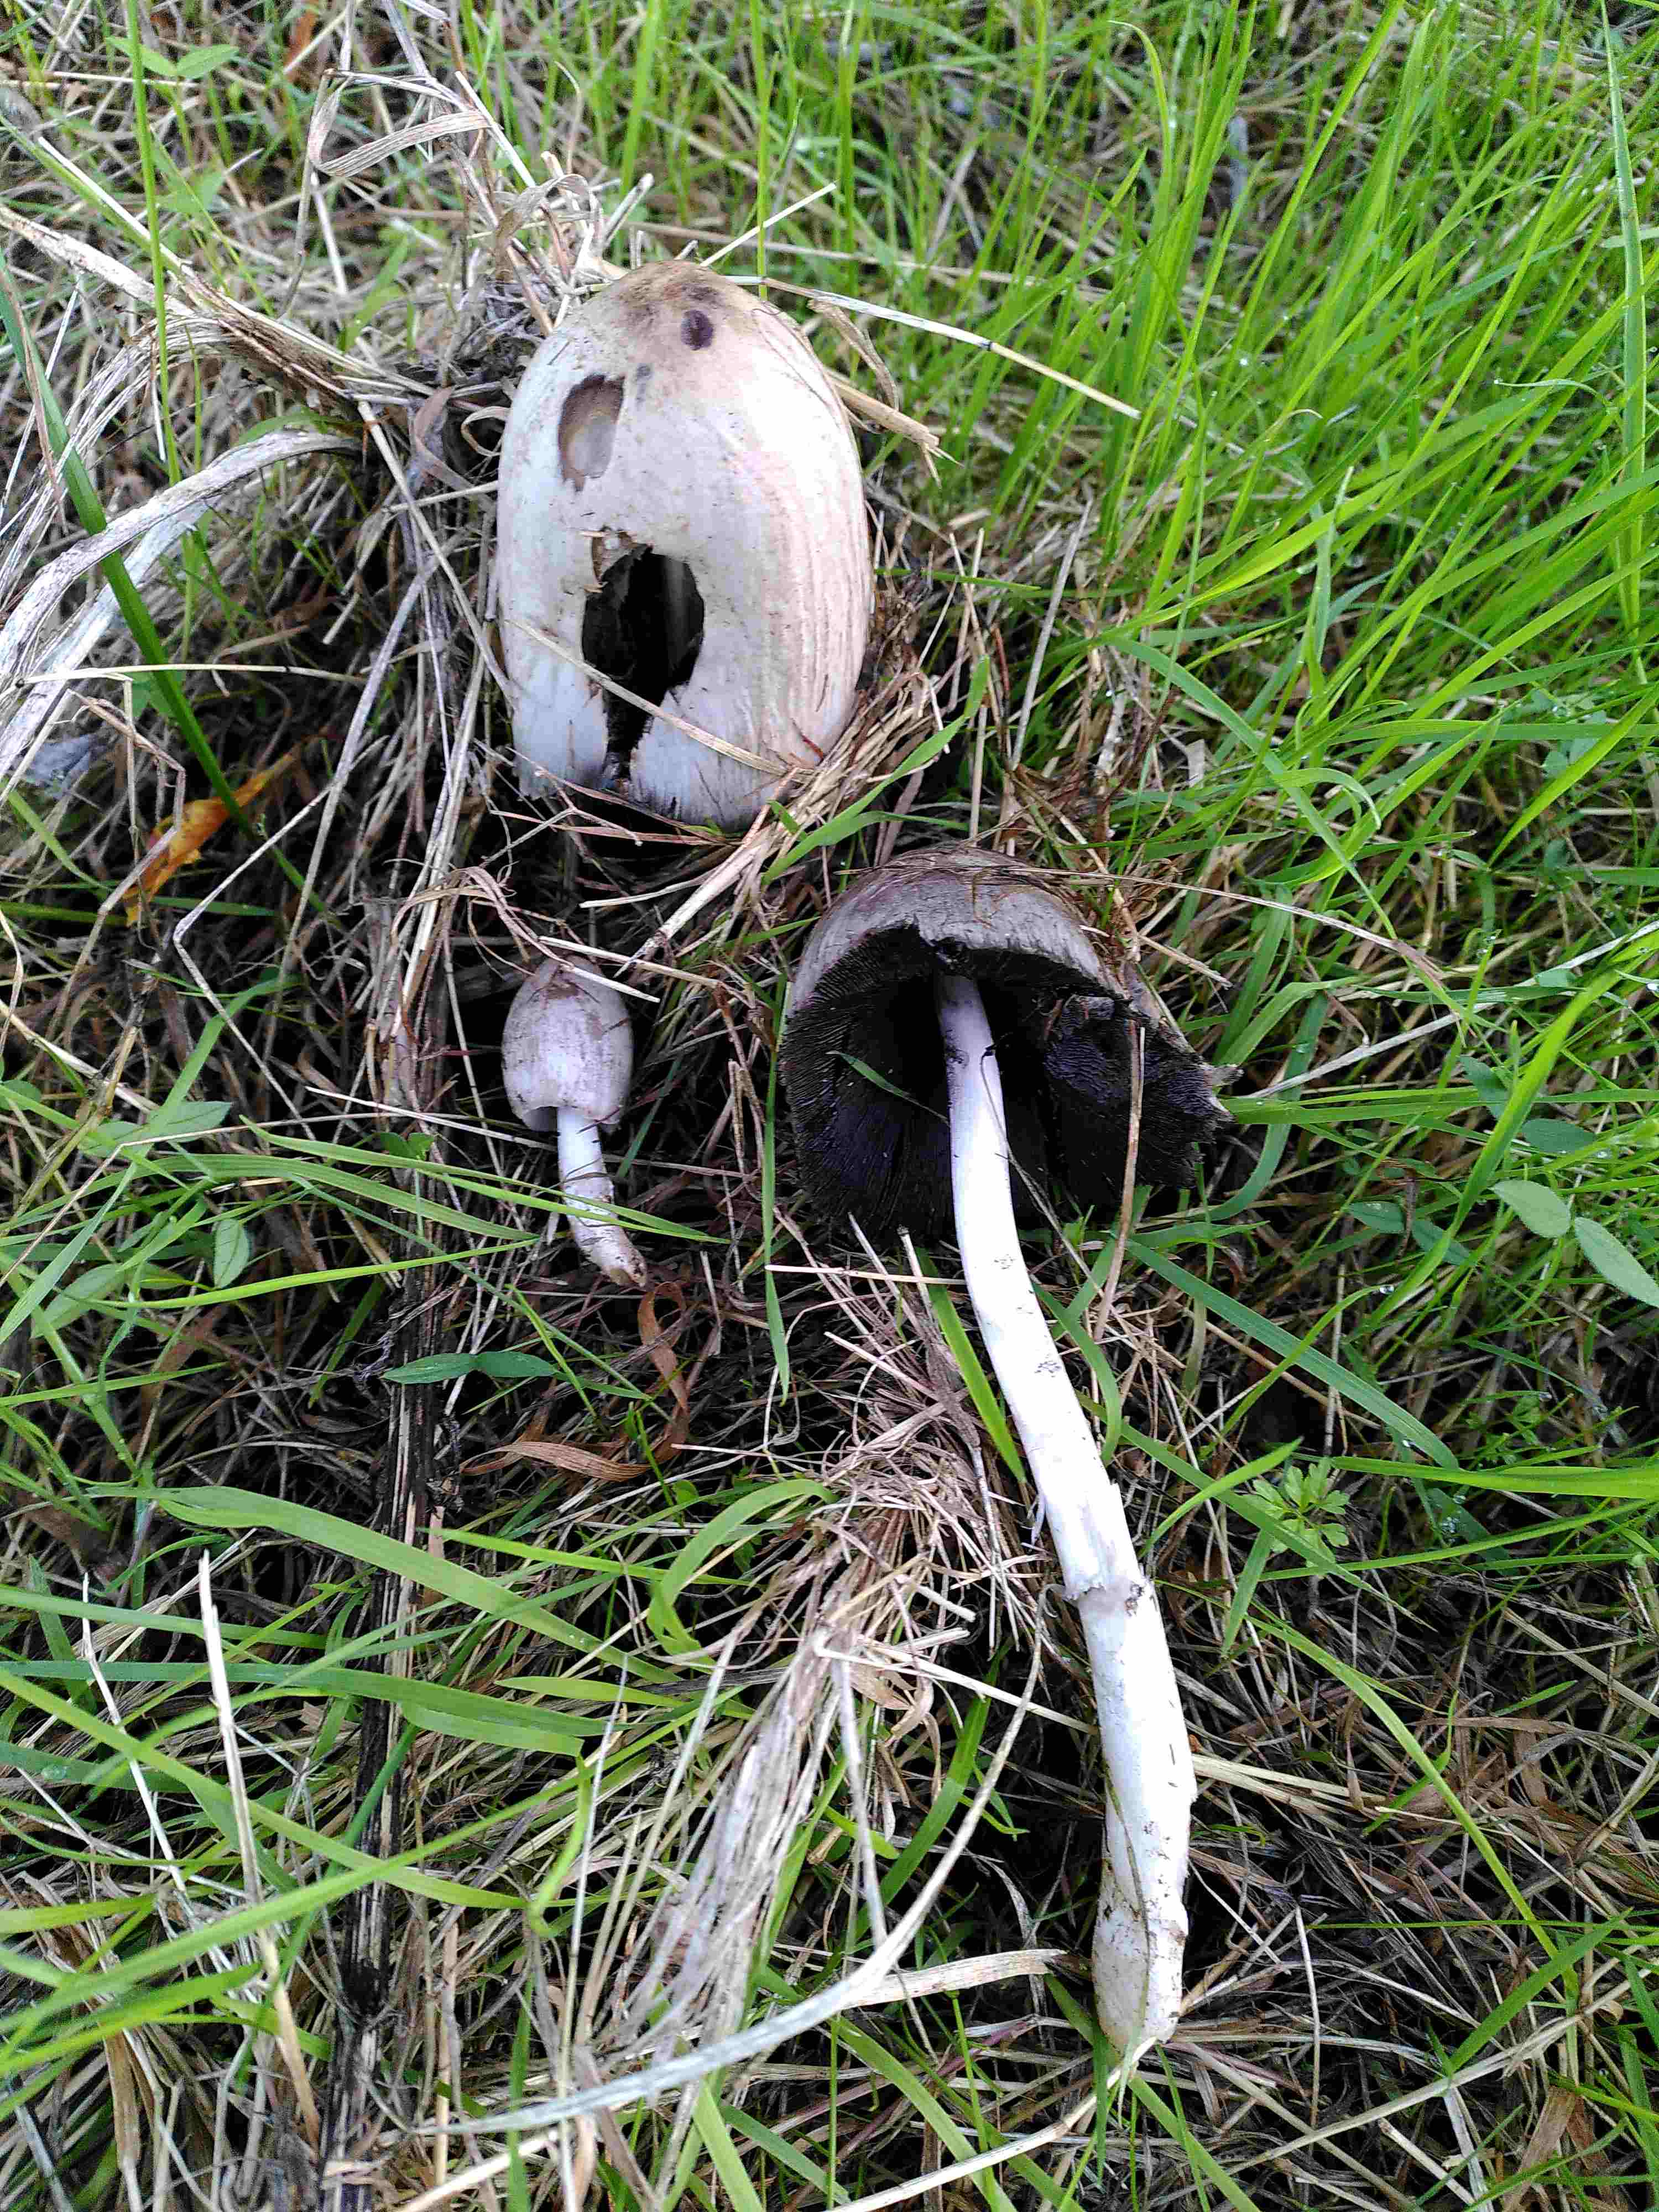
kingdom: Fungi
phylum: Basidiomycota
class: Agaricomycetes
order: Agaricales
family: Psathyrellaceae
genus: Coprinopsis
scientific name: Coprinopsis atramentaria
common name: almindelig blækhat
